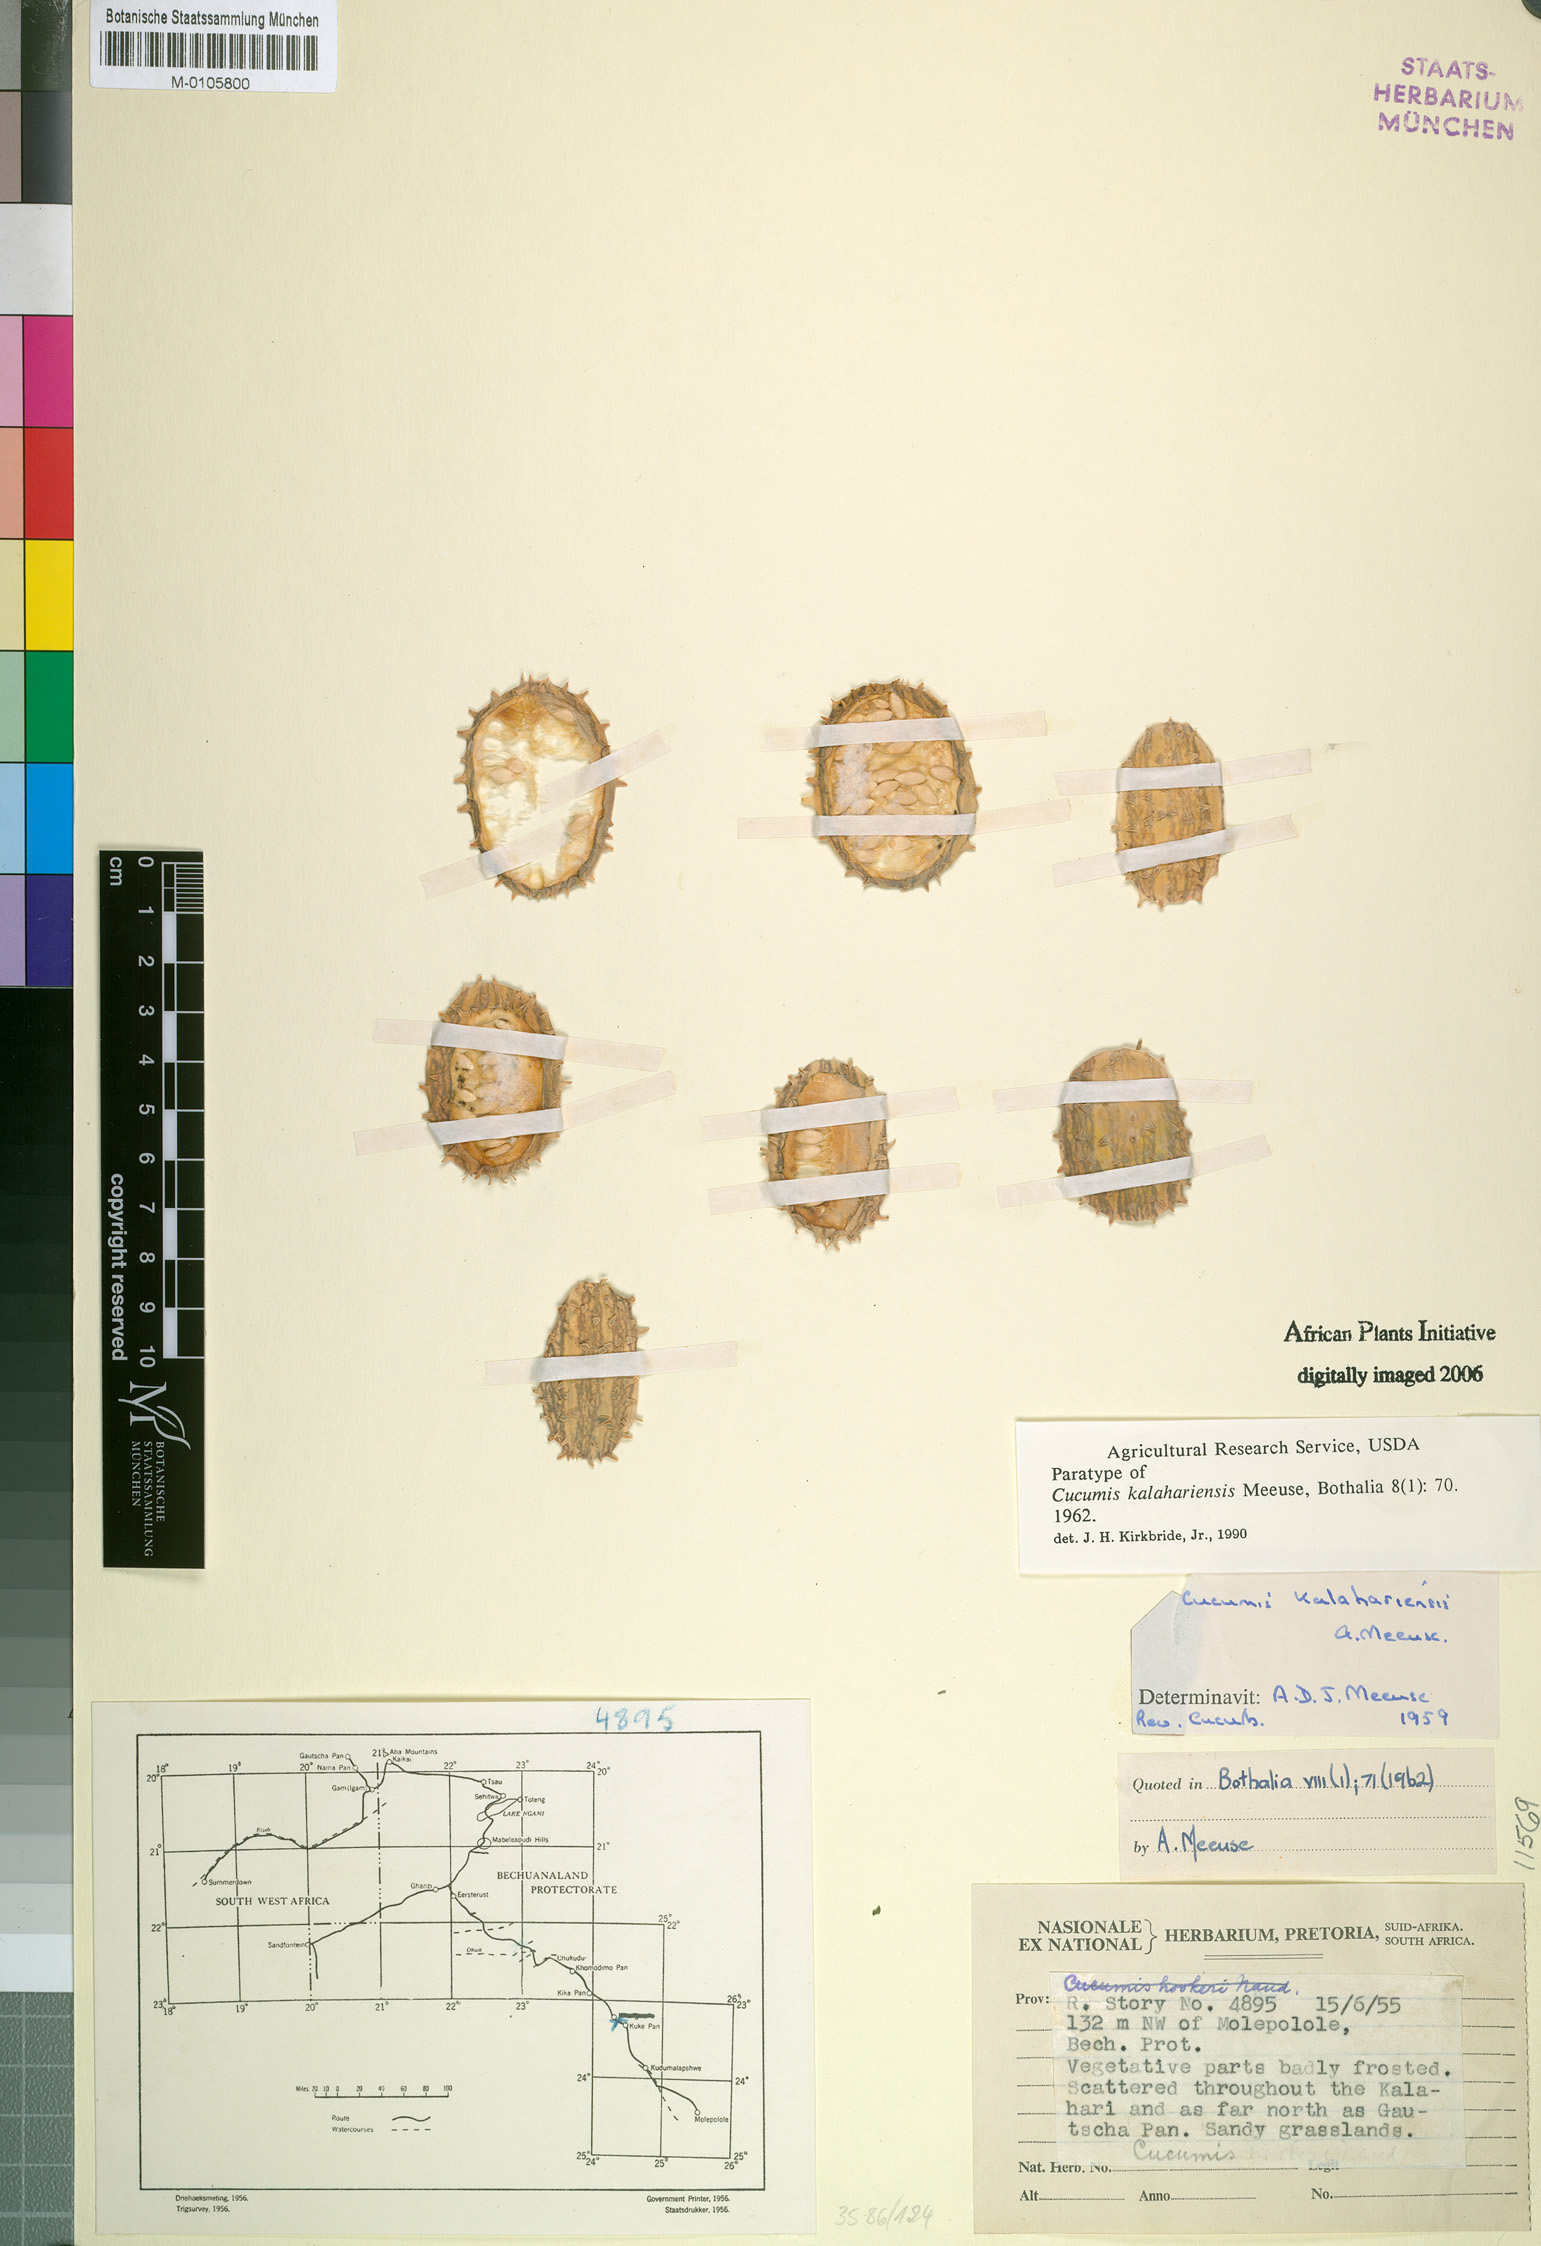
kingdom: Plantae
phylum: Tracheophyta
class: Magnoliopsida
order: Cucurbitales
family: Cucurbitaceae
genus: Cucumis
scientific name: Cucumis kalahariensis
